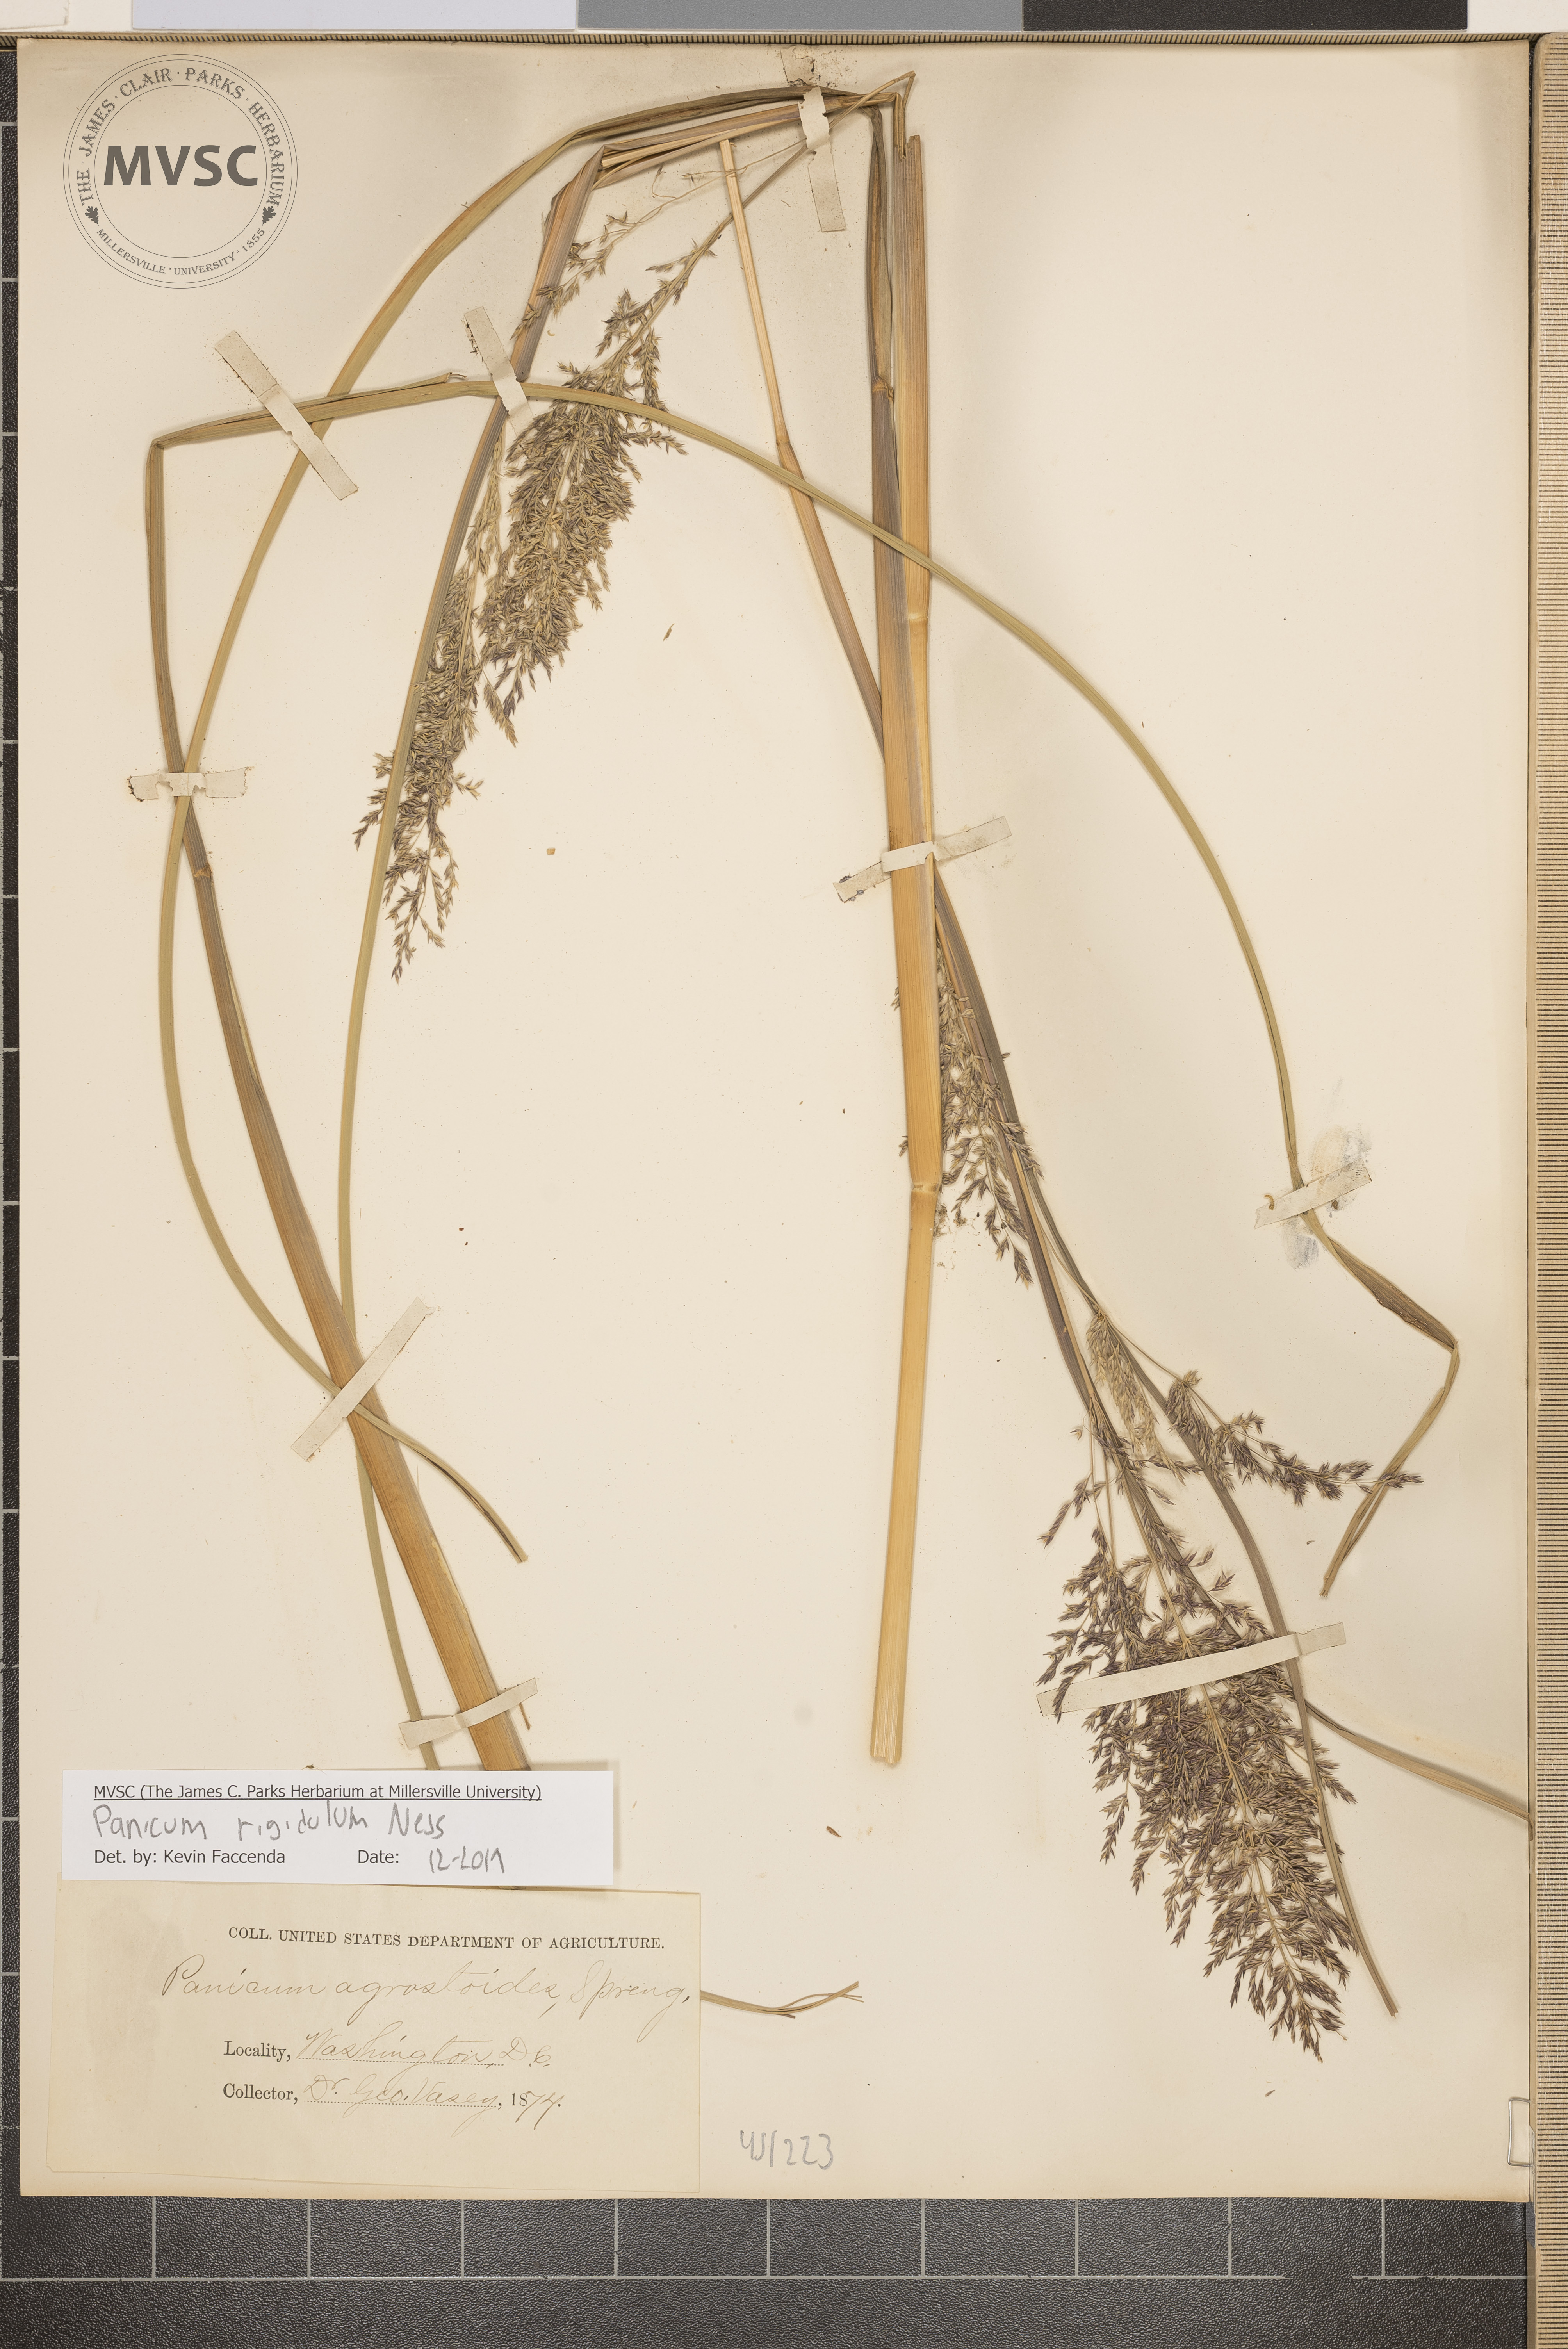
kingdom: Plantae
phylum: Tracheophyta
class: Liliopsida
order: Poales
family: Poaceae
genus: Coleataenia
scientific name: Coleataenia rigidula
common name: Redtop panicgrass
